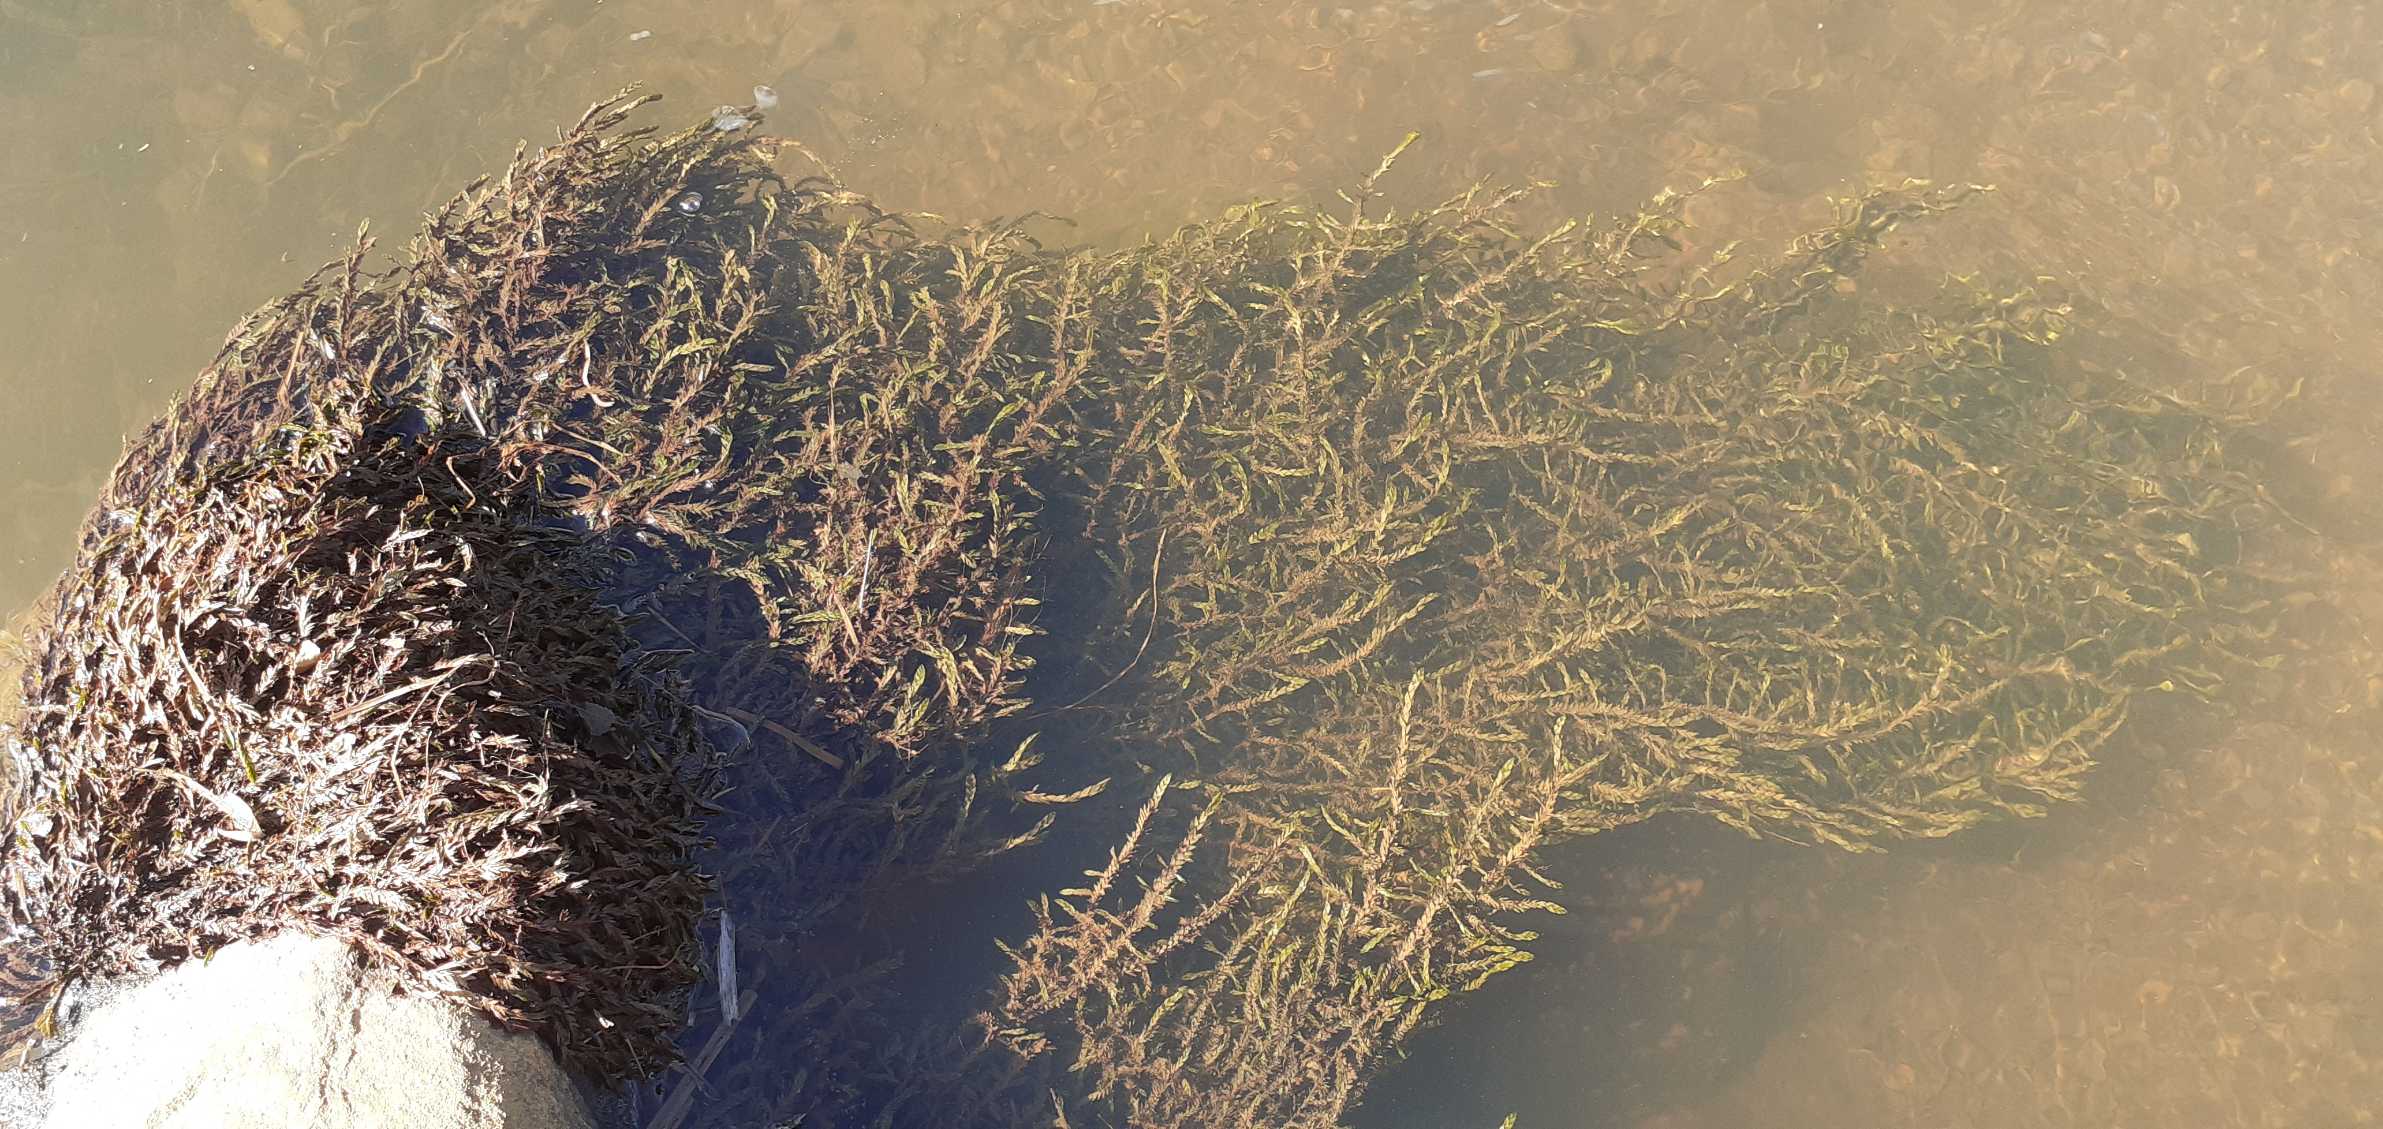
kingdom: Plantae
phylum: Bryophyta
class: Bryopsida
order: Hypnales
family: Fontinalaceae
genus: Fontinalis
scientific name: Fontinalis antipyretica
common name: Stor kildemos
